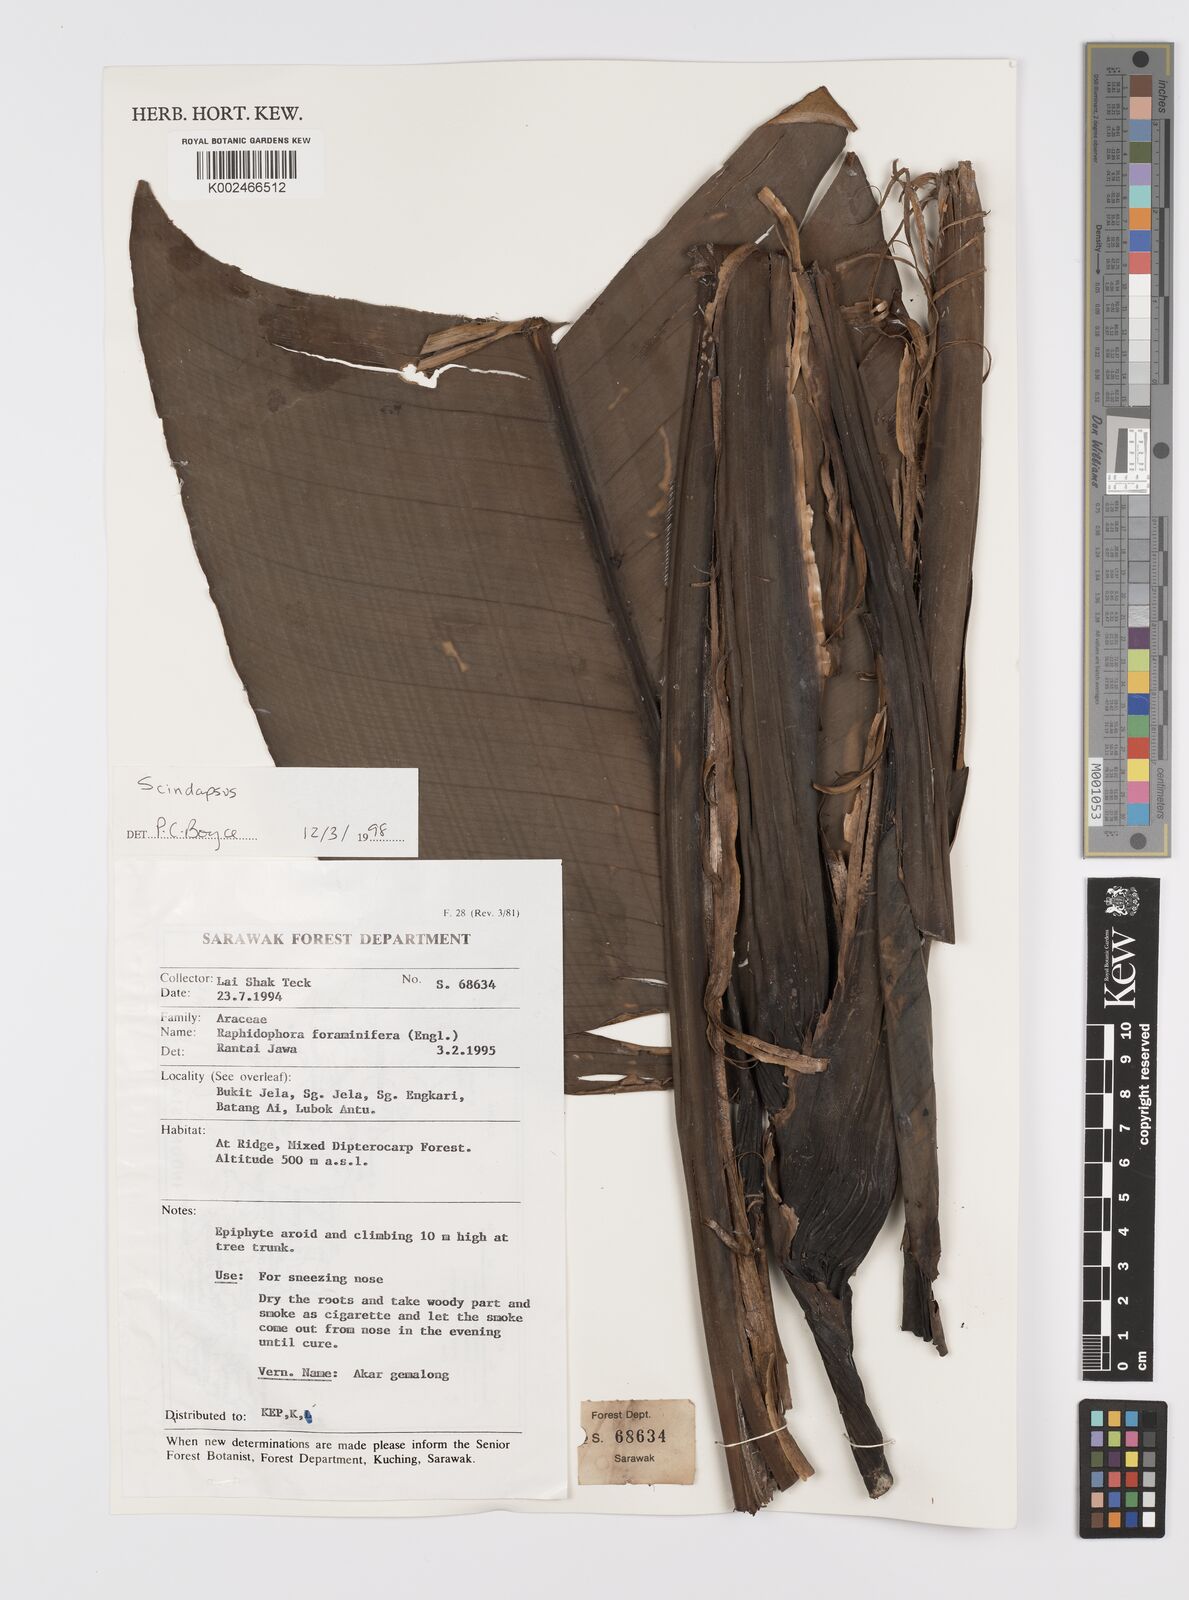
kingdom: Plantae
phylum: Tracheophyta
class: Liliopsida
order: Alismatales
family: Araceae
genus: Scindapsus
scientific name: Scindapsus glaucescens
